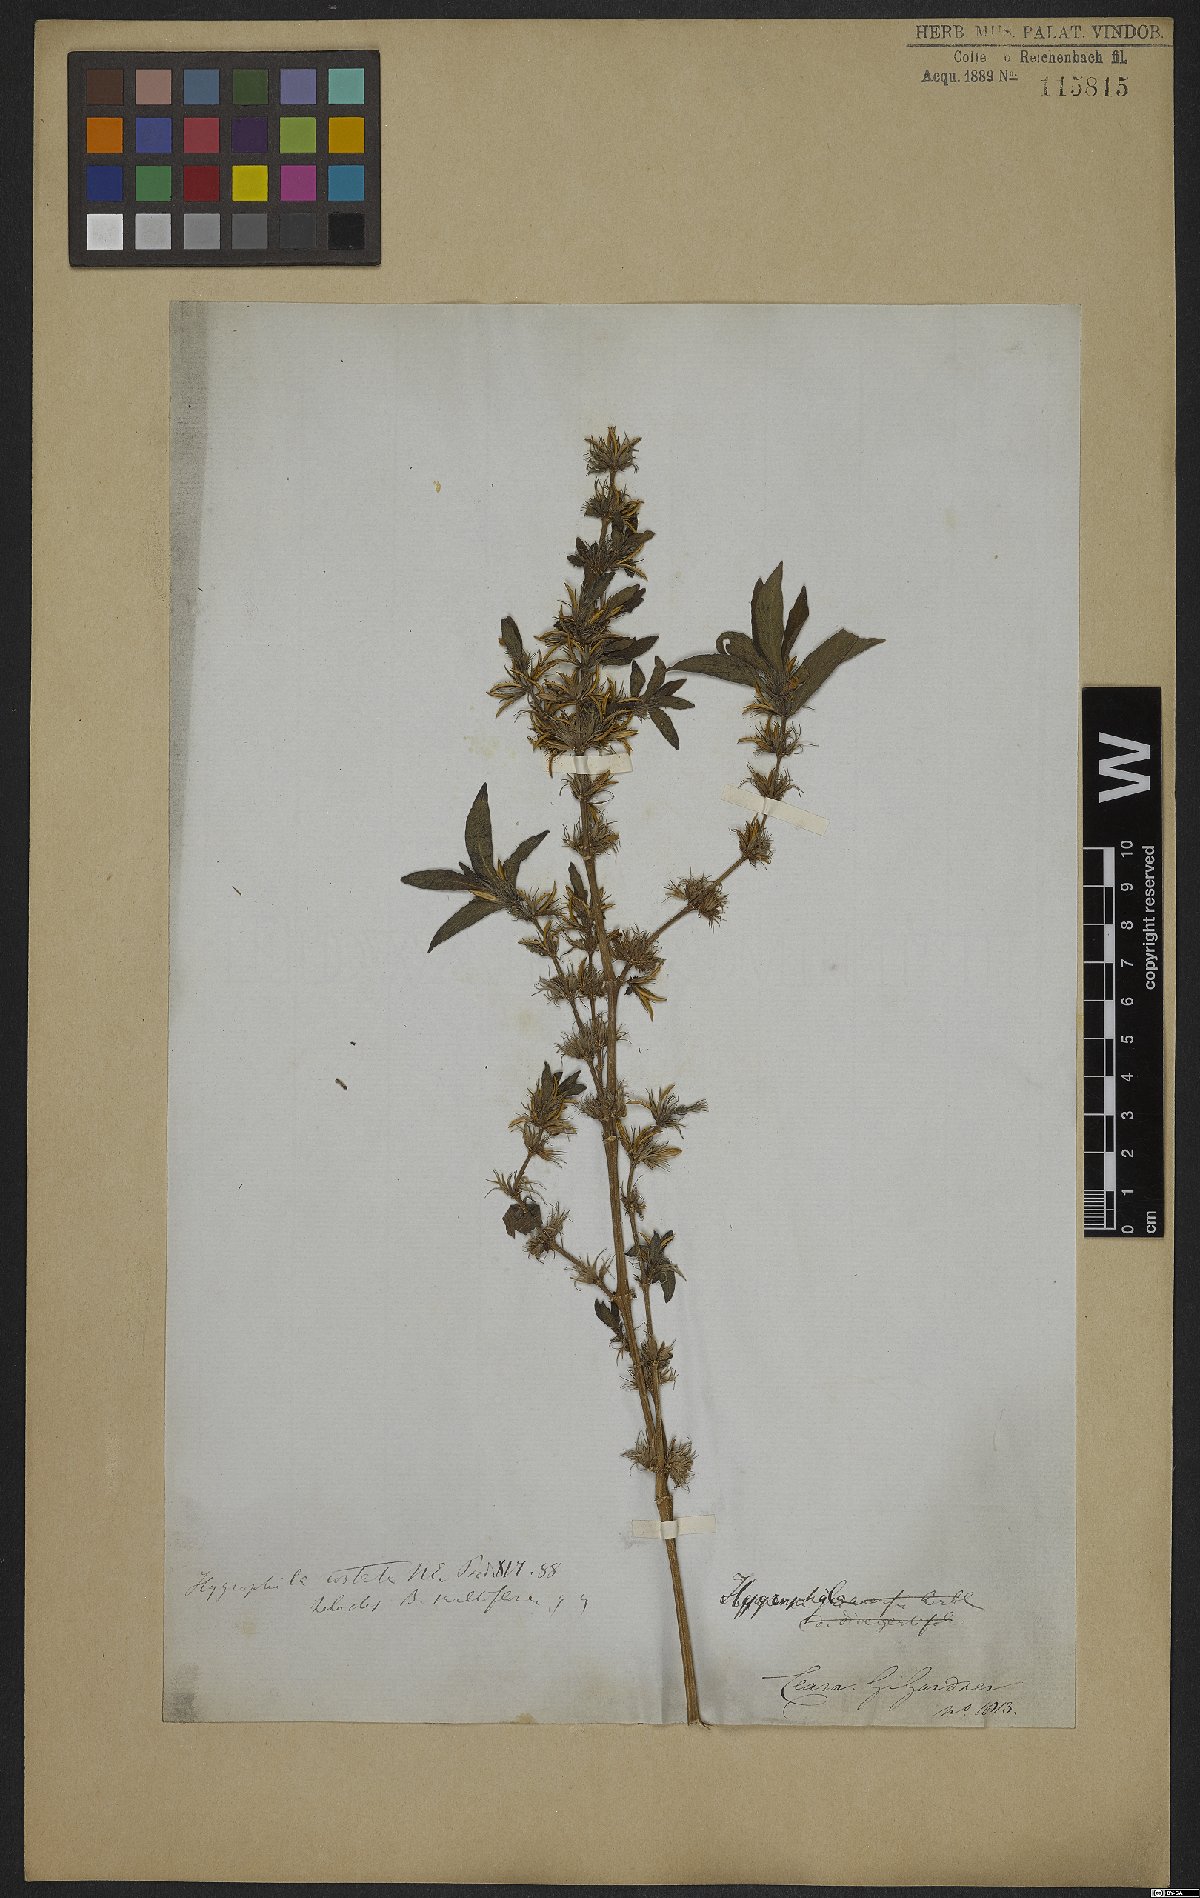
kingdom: Plantae
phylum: Tracheophyta
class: Magnoliopsida
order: Lamiales
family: Acanthaceae
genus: Hygrophila
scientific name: Hygrophila costata
